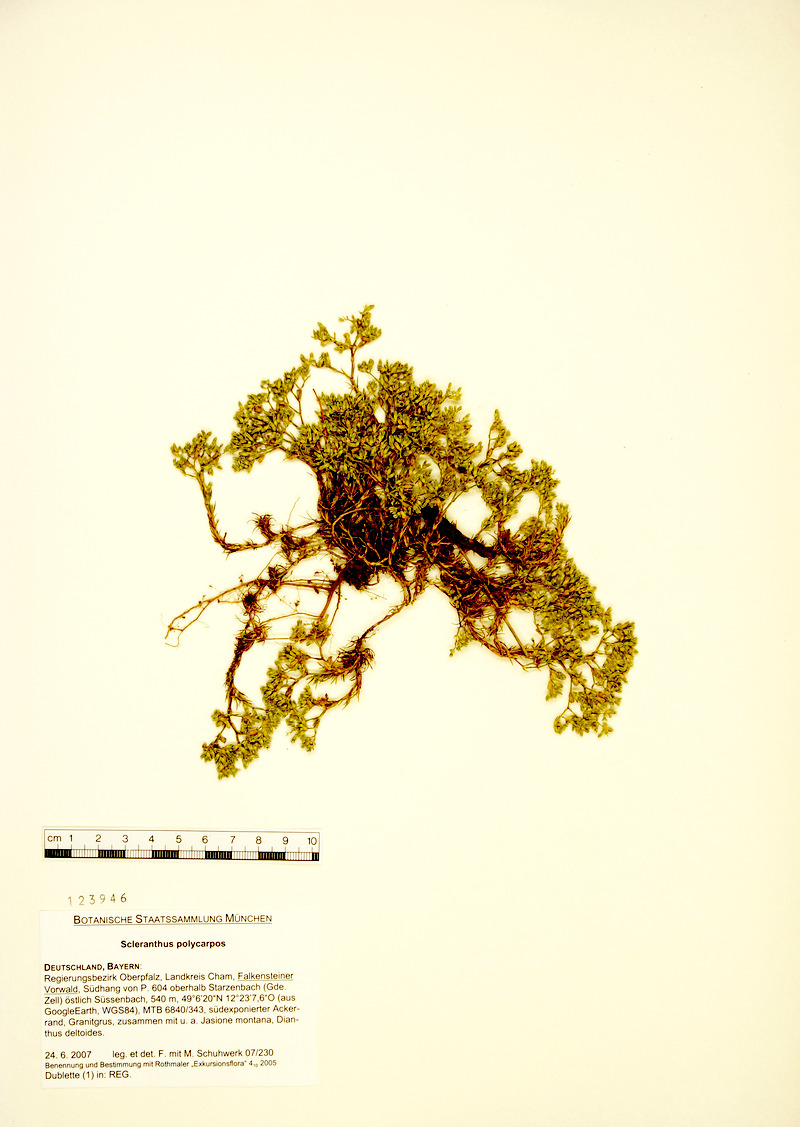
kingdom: Plantae
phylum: Tracheophyta
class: Magnoliopsida
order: Caryophyllales
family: Caryophyllaceae
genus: Scleranthus
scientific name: Scleranthus annuus
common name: Annual knawel
